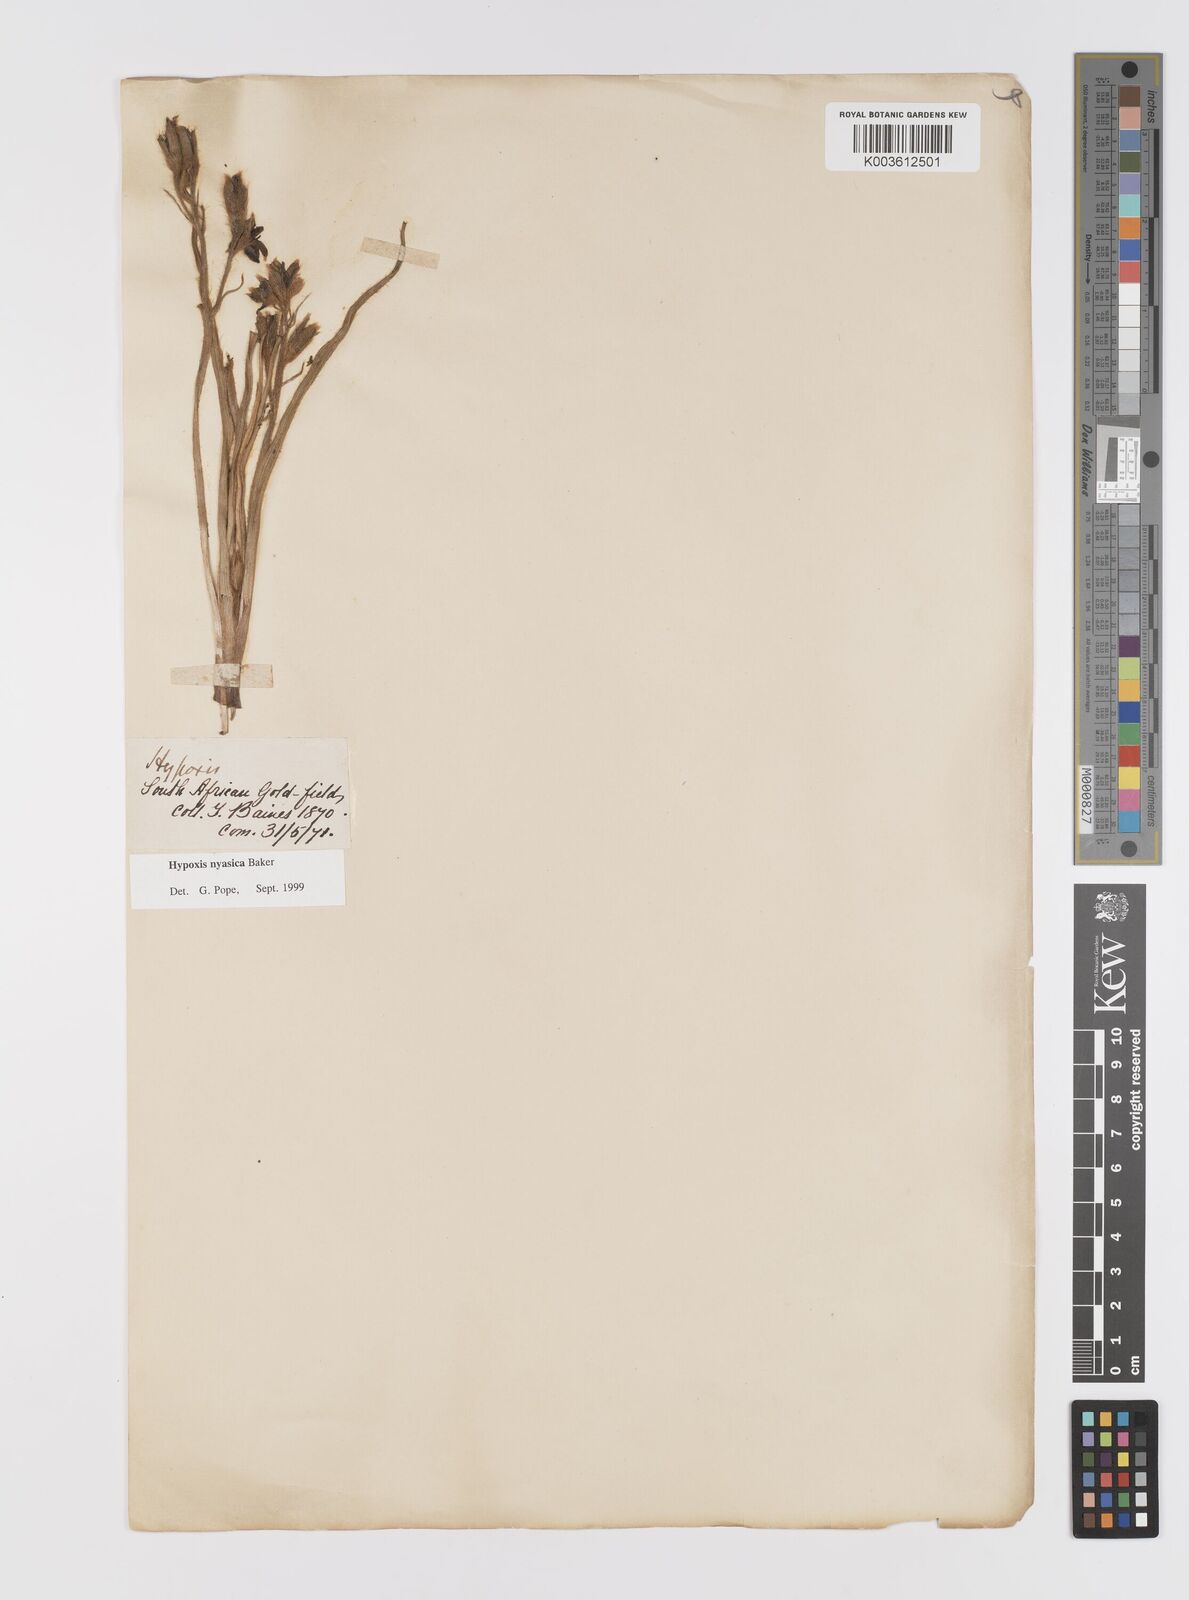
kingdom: Plantae
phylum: Tracheophyta
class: Liliopsida
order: Asparagales
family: Hypoxidaceae
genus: Hypoxis
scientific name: Hypoxis nyasica
